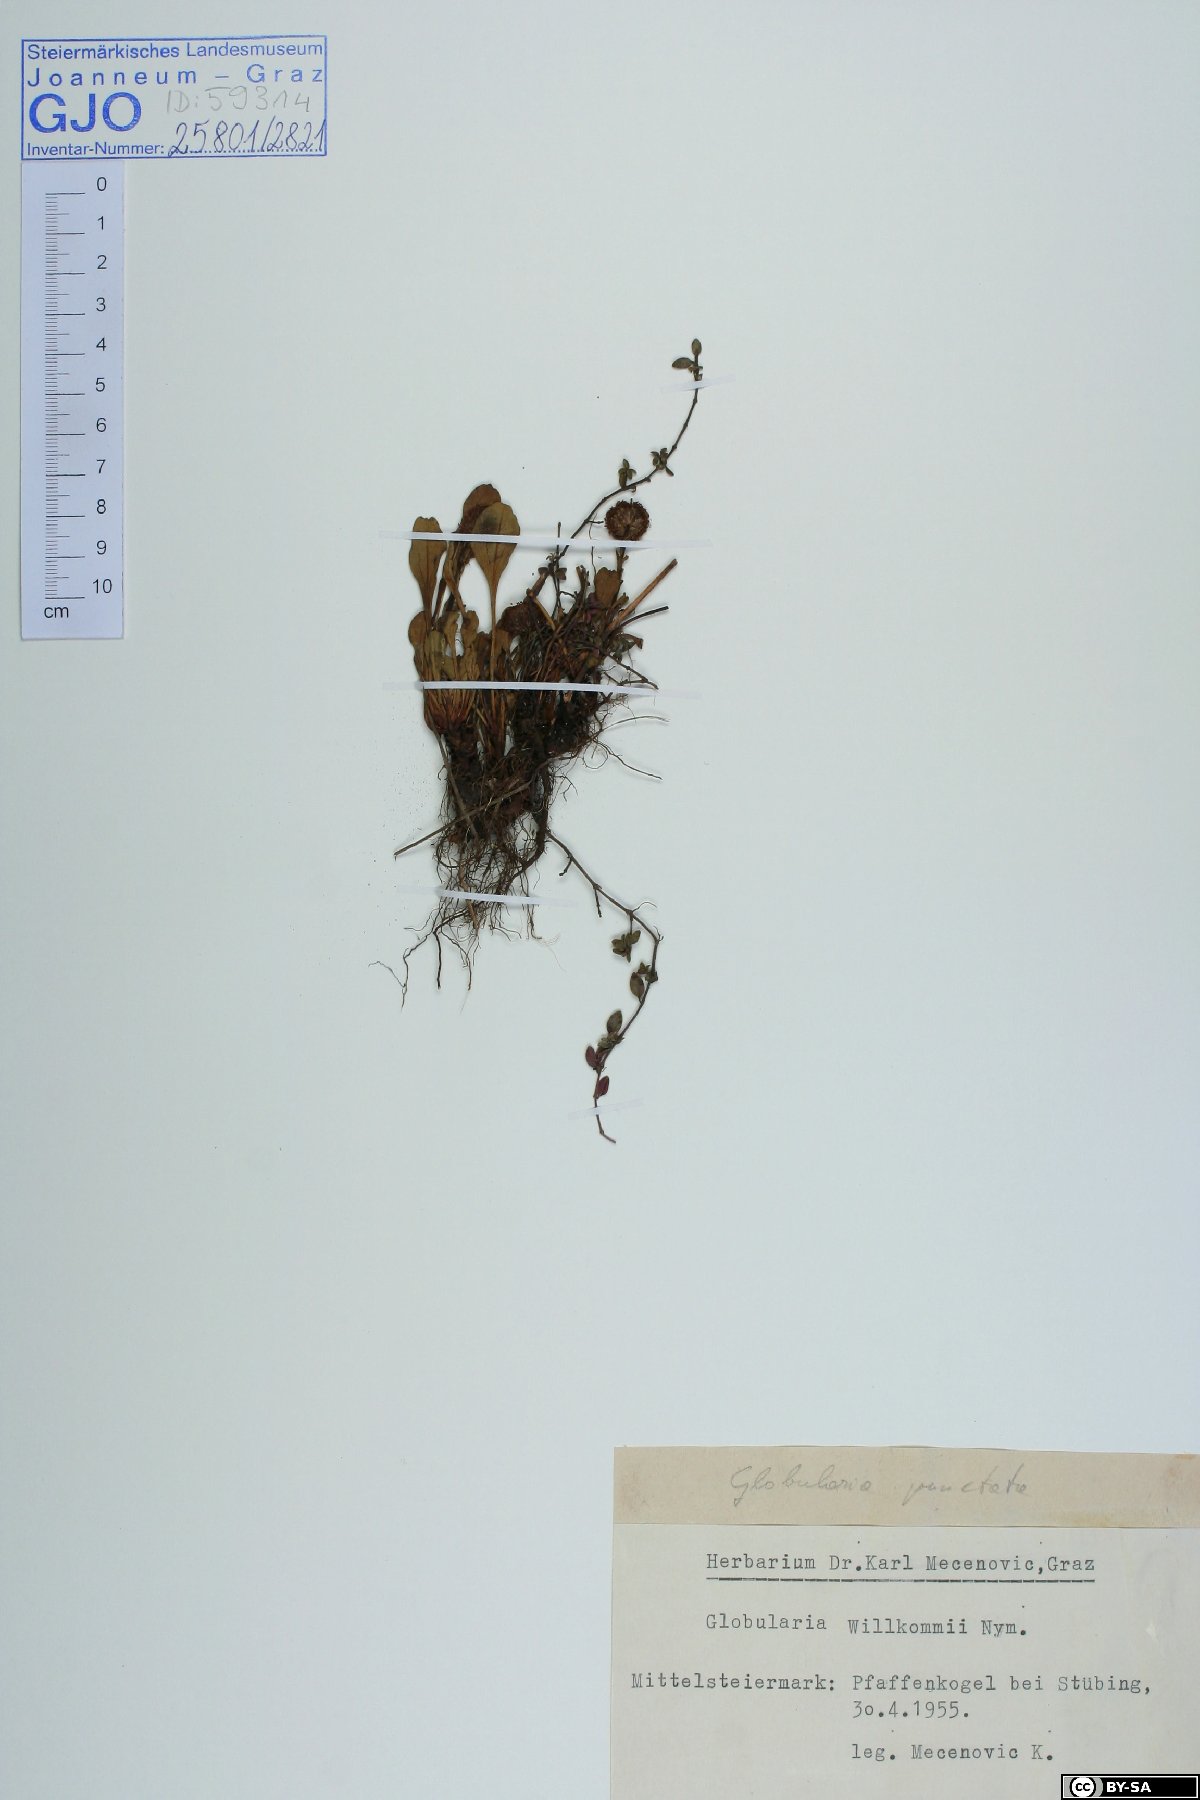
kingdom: Plantae
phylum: Tracheophyta
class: Magnoliopsida
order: Lamiales
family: Plantaginaceae
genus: Globularia
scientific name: Globularia bisnagarica
